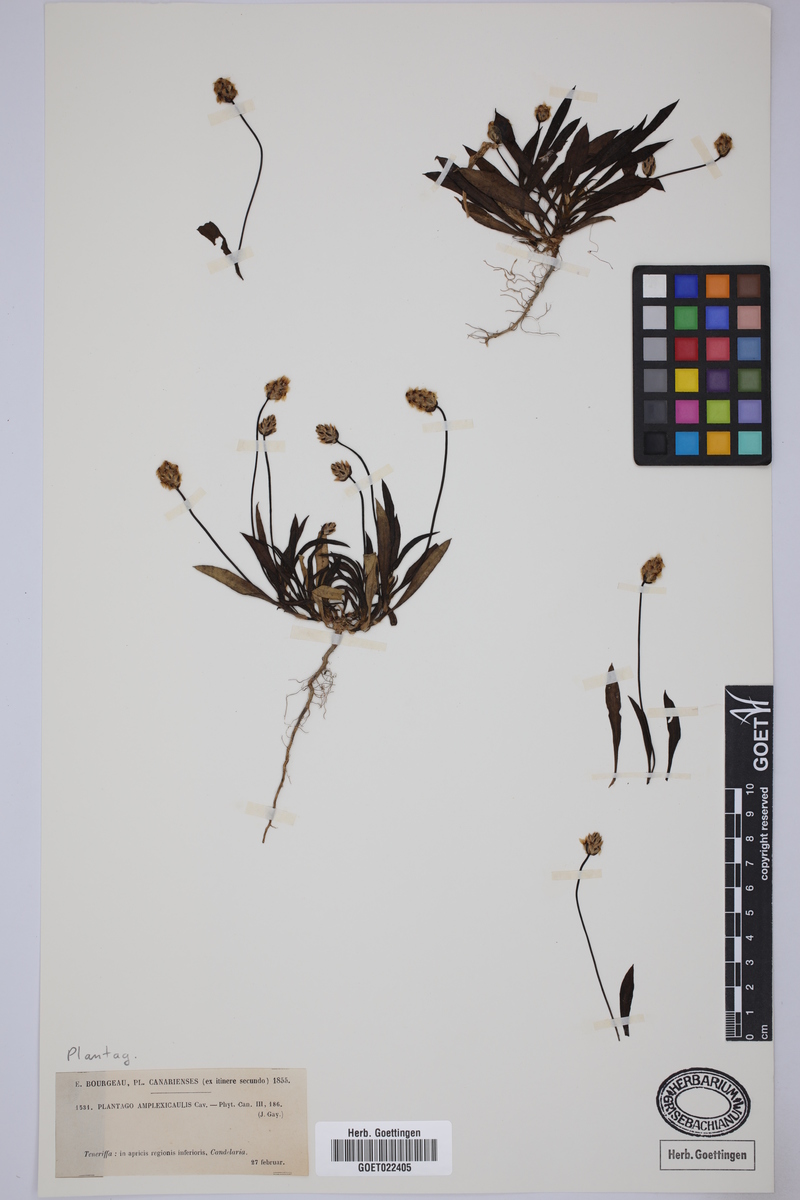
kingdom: Plantae
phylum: Tracheophyta
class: Magnoliopsida
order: Lamiales
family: Plantaginaceae
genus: Plantago
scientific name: Plantago amplexicaulis
